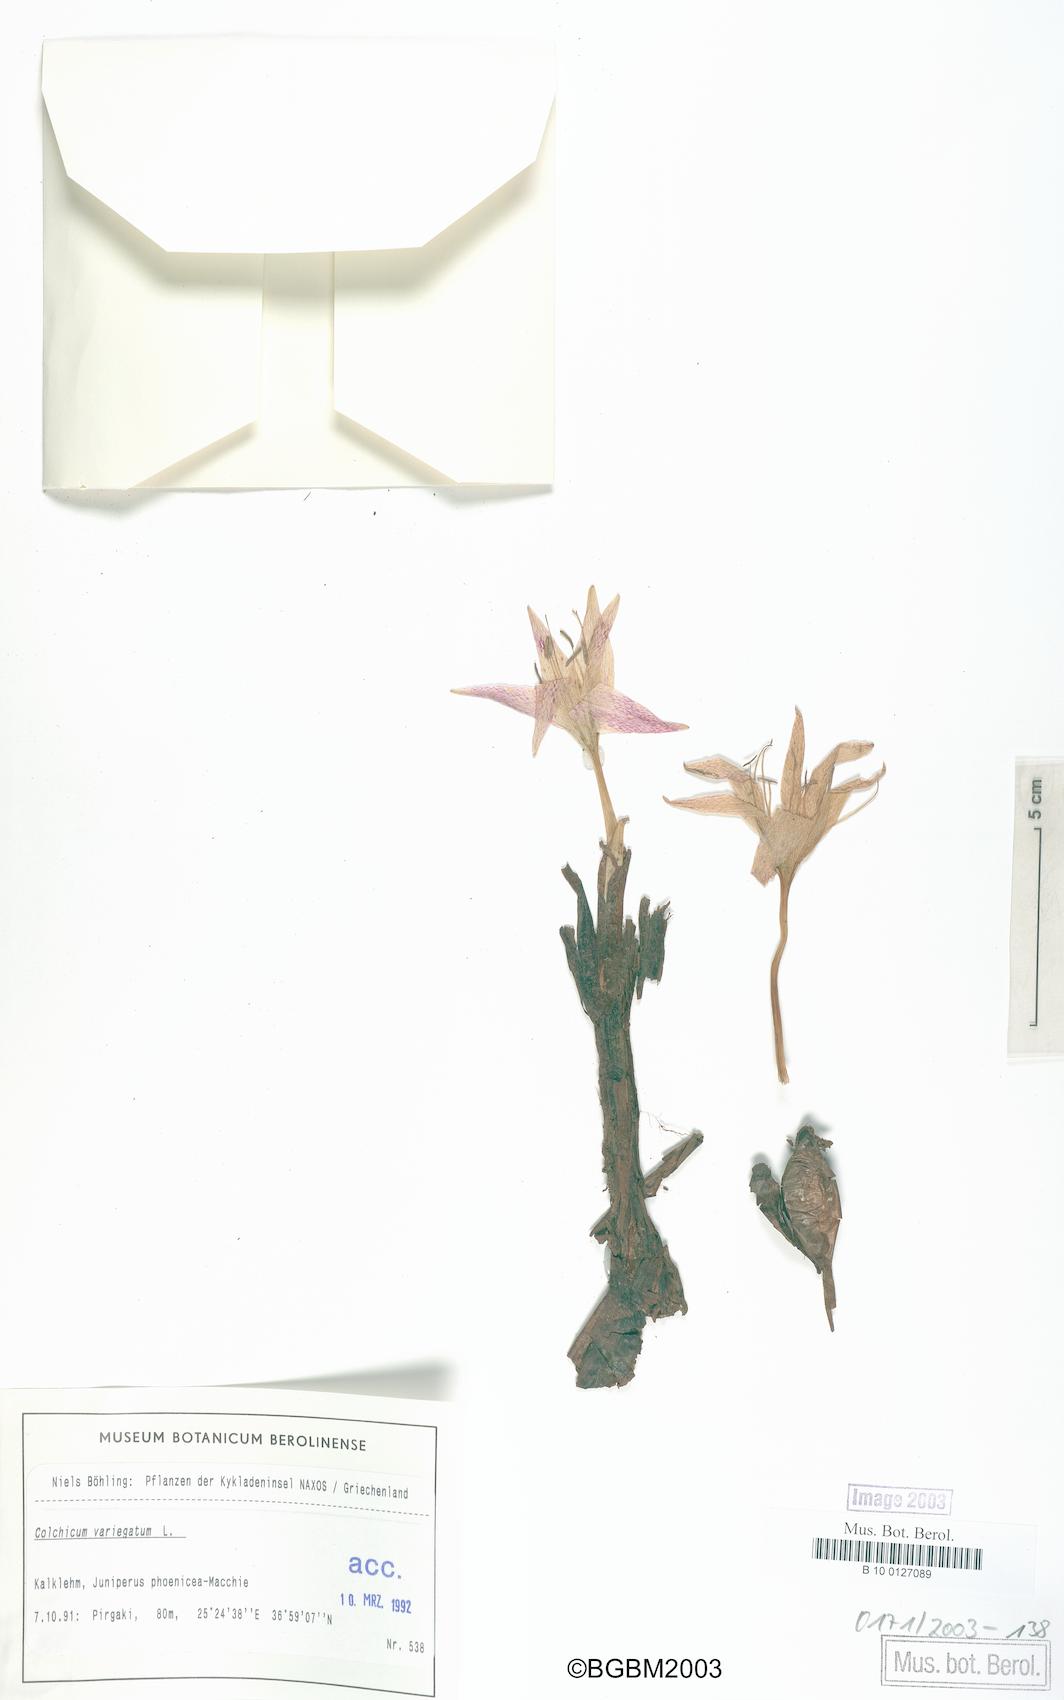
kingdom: Plantae
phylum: Tracheophyta
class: Liliopsida
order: Liliales
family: Colchicaceae
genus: Colchicum
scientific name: Colchicum variegatum
